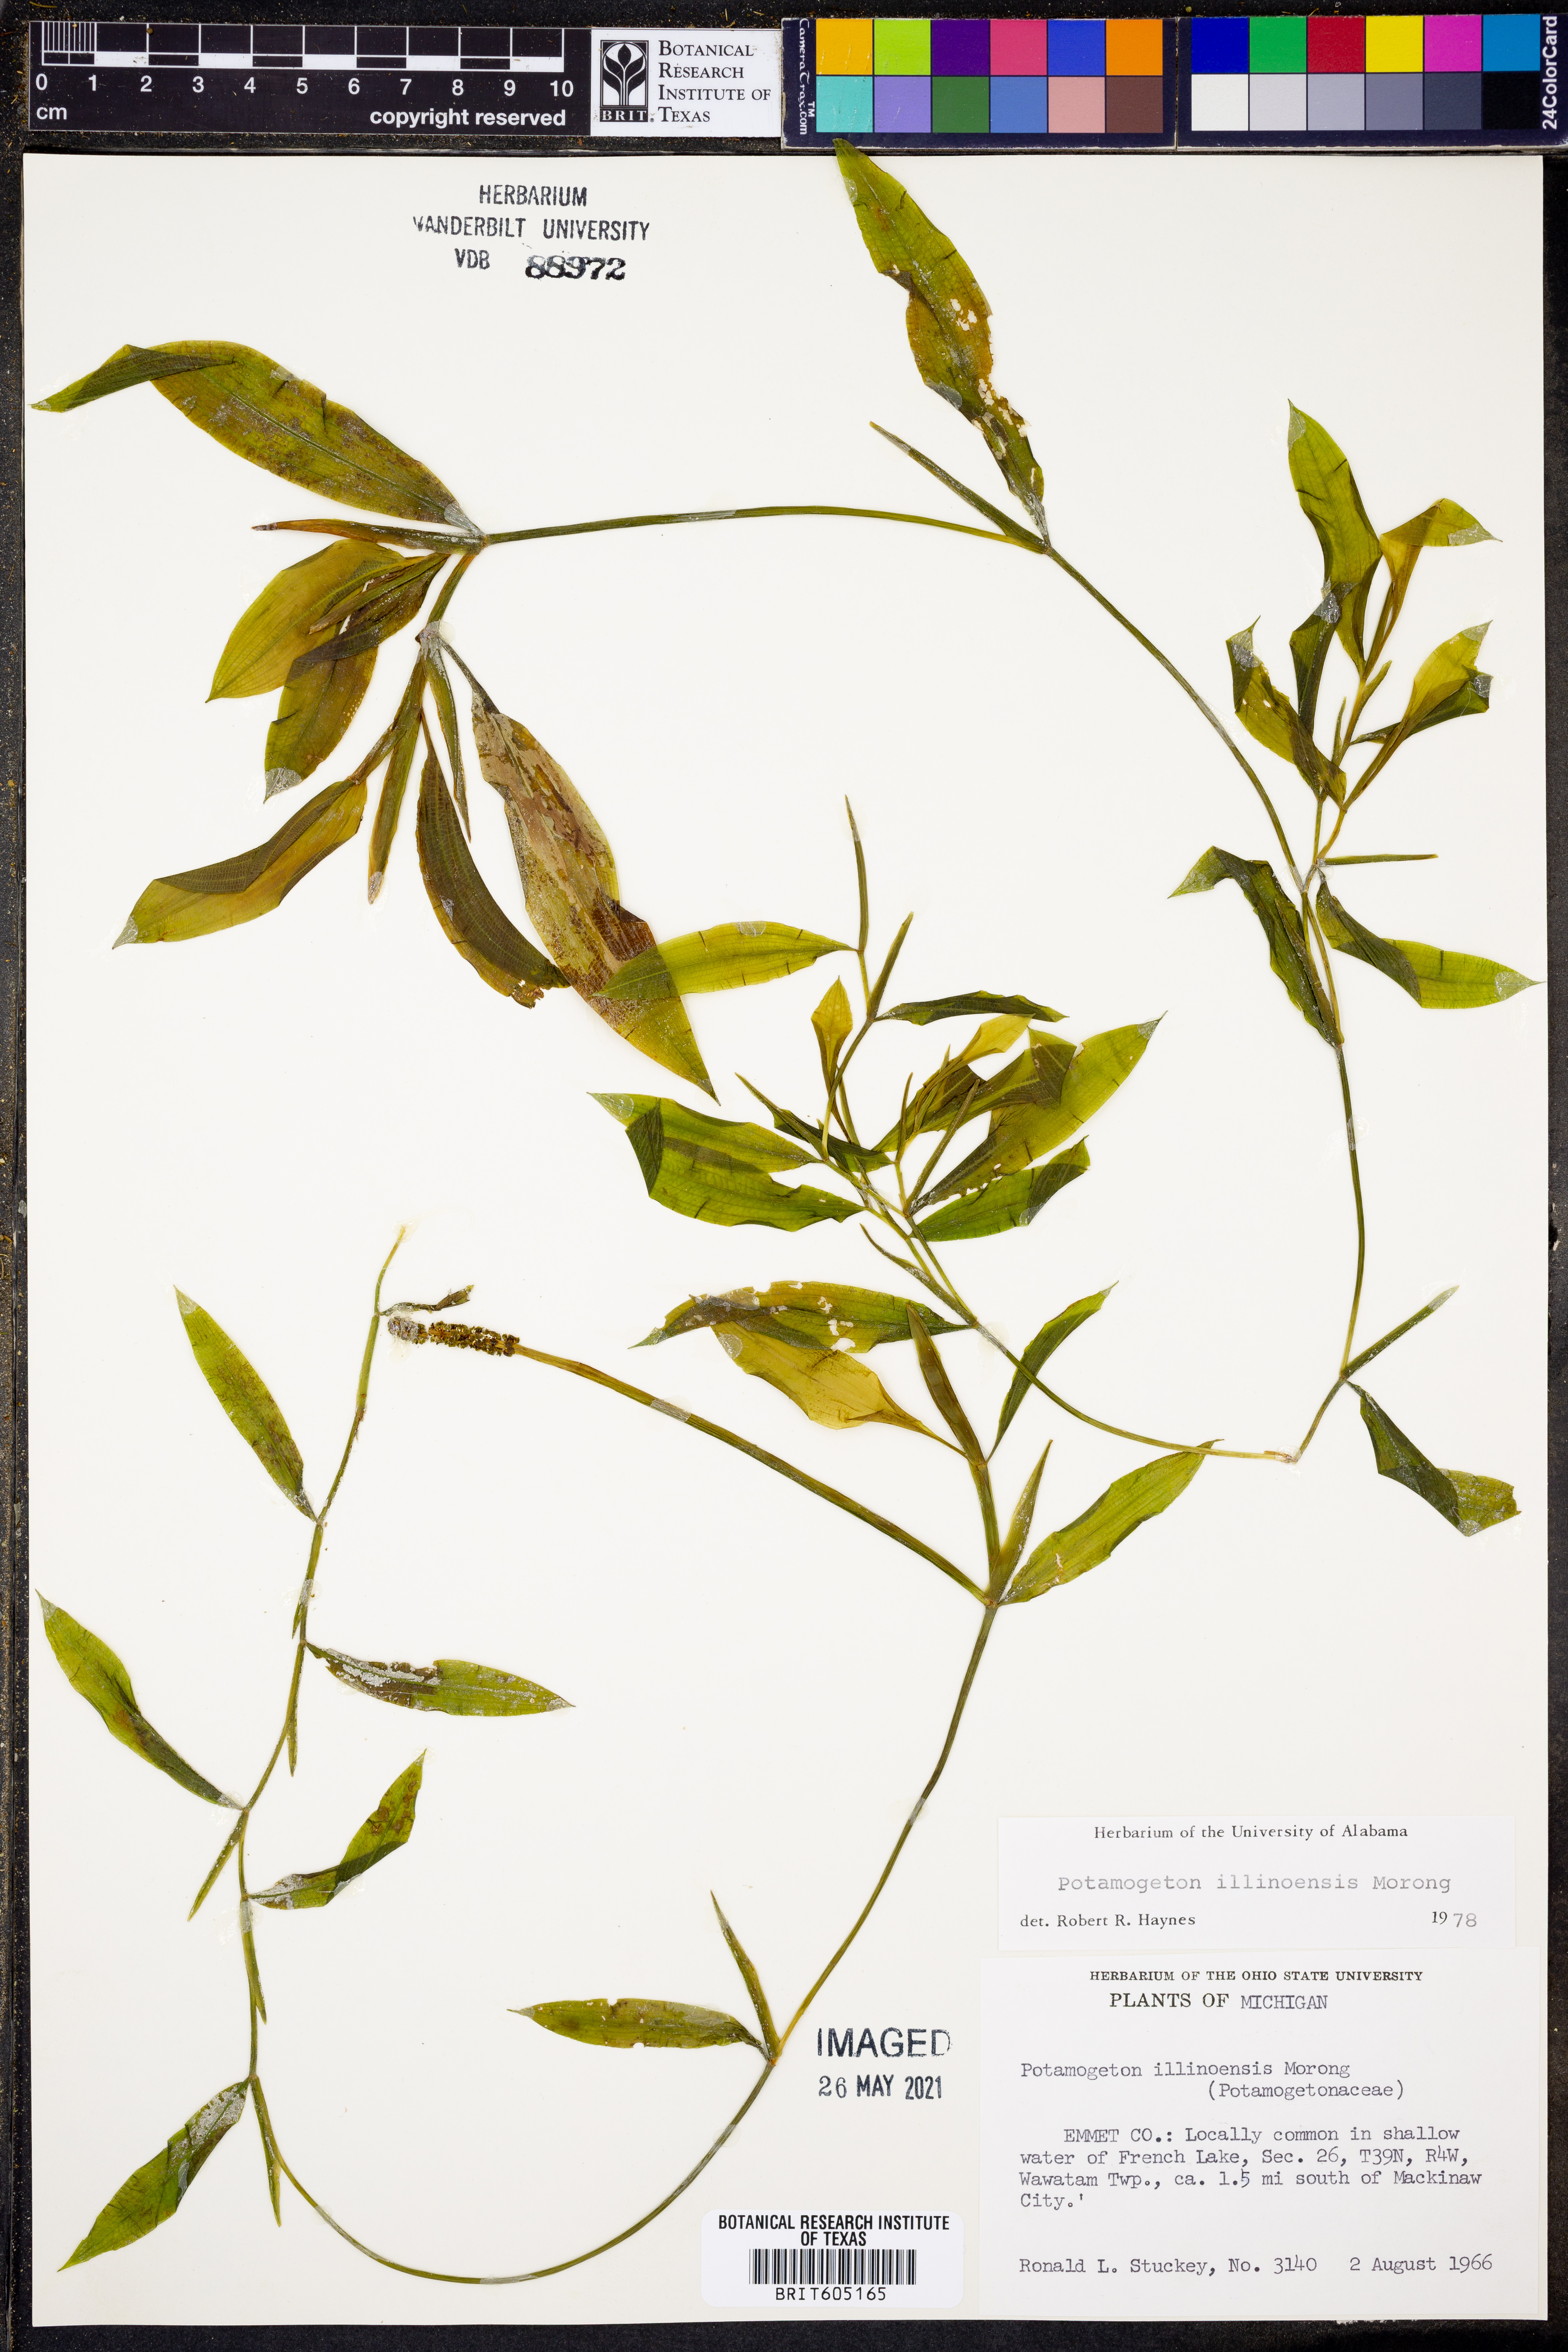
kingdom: Plantae
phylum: Tracheophyta
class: Liliopsida
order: Alismatales
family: Potamogetonaceae
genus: Potamogeton
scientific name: Potamogeton illinoensis
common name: Illinois pondweed
